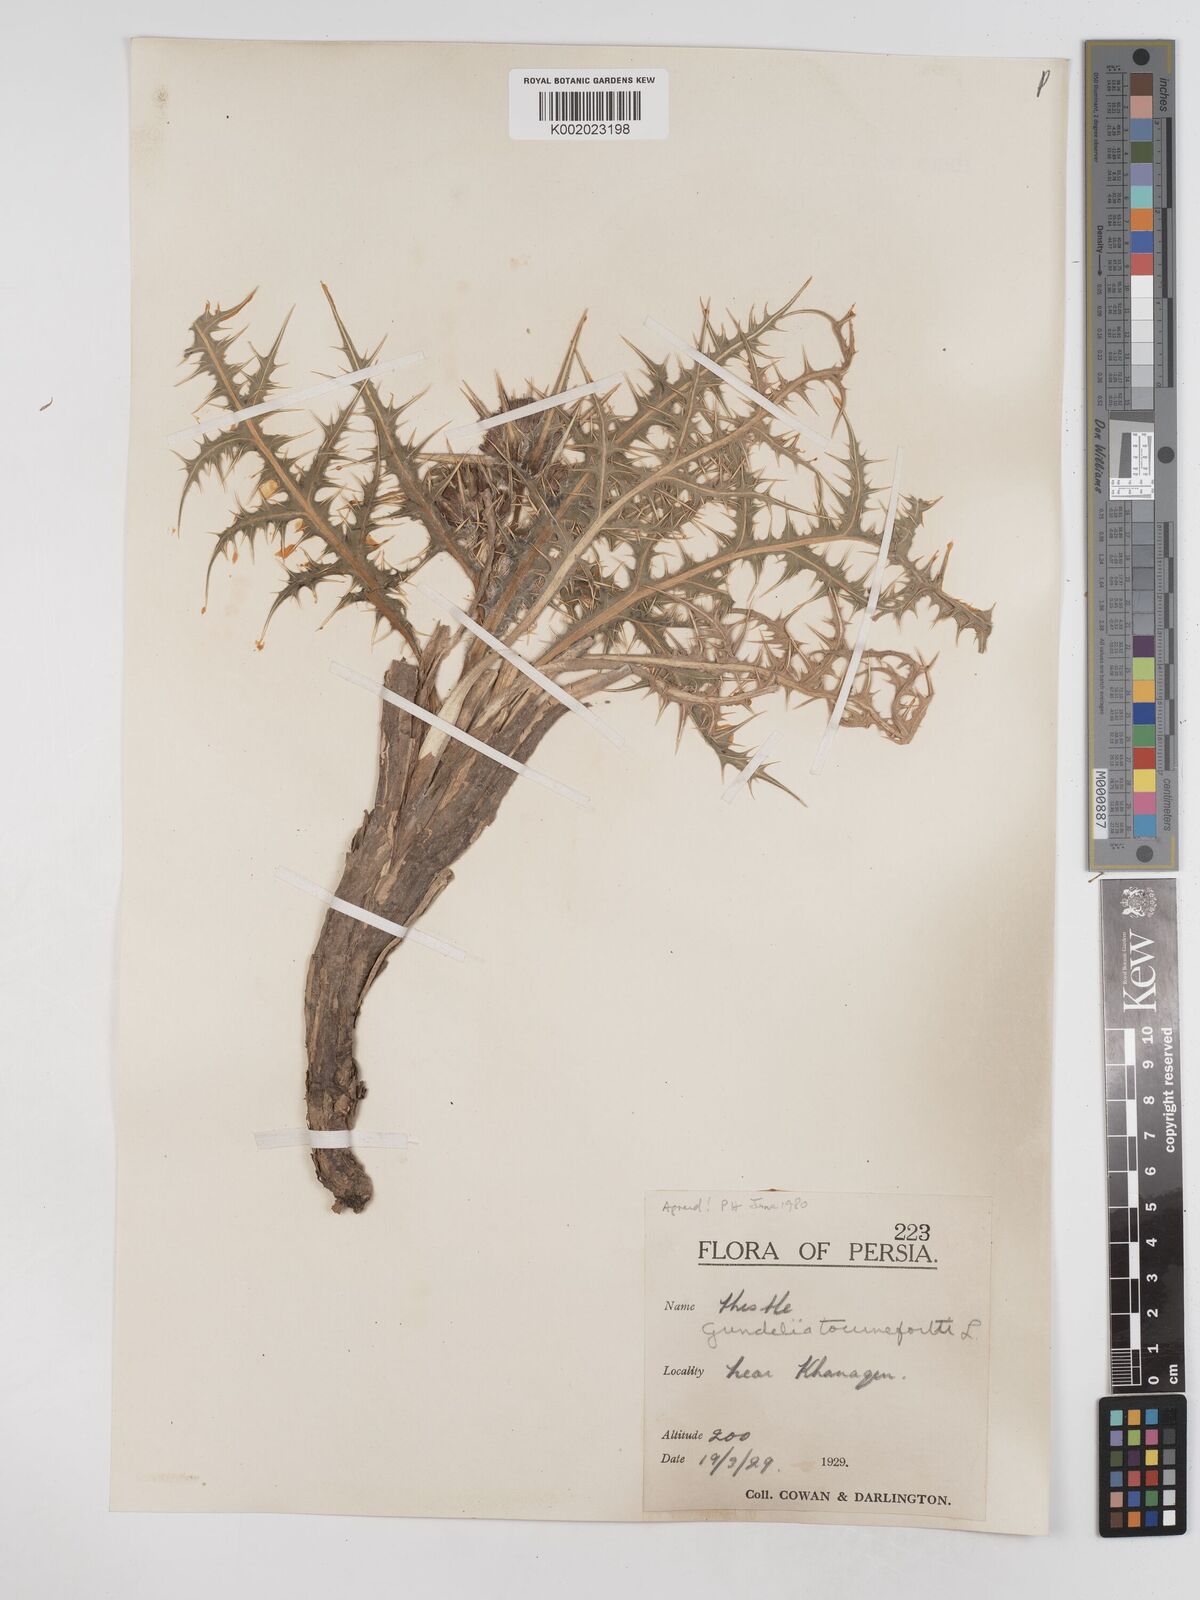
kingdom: Plantae
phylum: Tracheophyta
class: Magnoliopsida
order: Asterales
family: Asteraceae
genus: Gundelia
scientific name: Gundelia tournefortii
